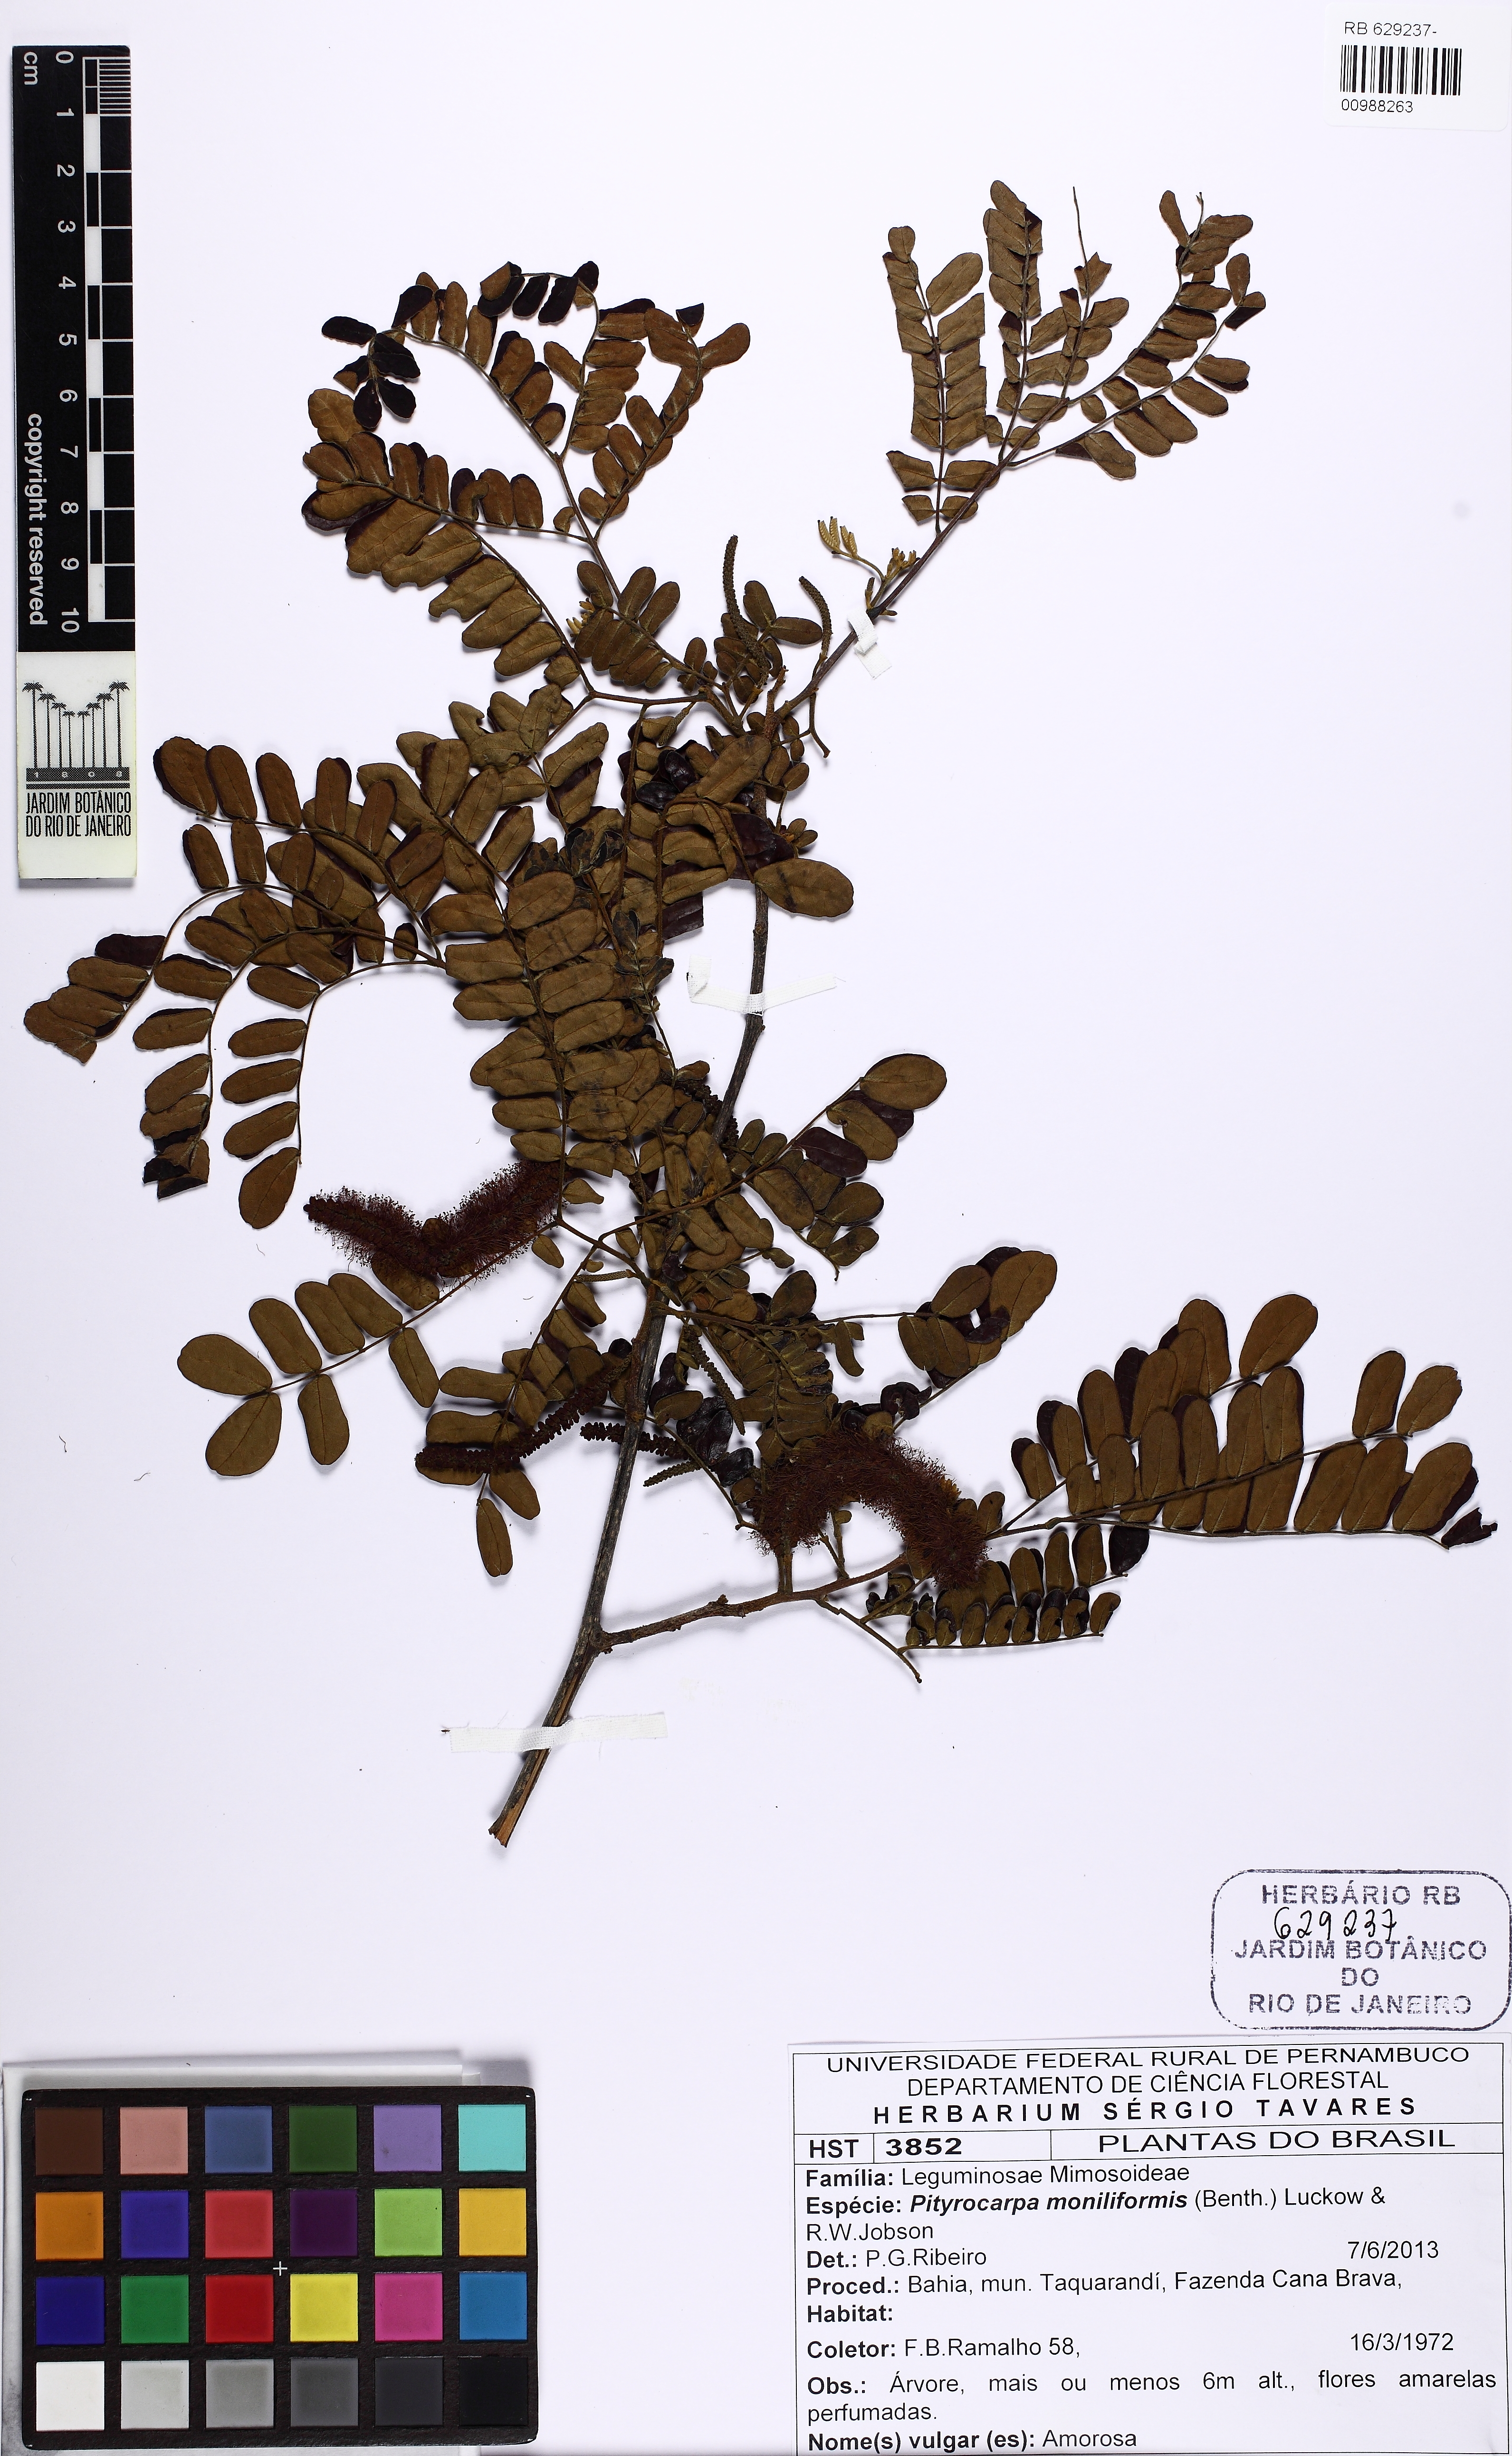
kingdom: Plantae
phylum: Tracheophyta
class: Magnoliopsida
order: Fabales
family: Fabaceae
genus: Pityrocarpa
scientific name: Pityrocarpa moniliformis
